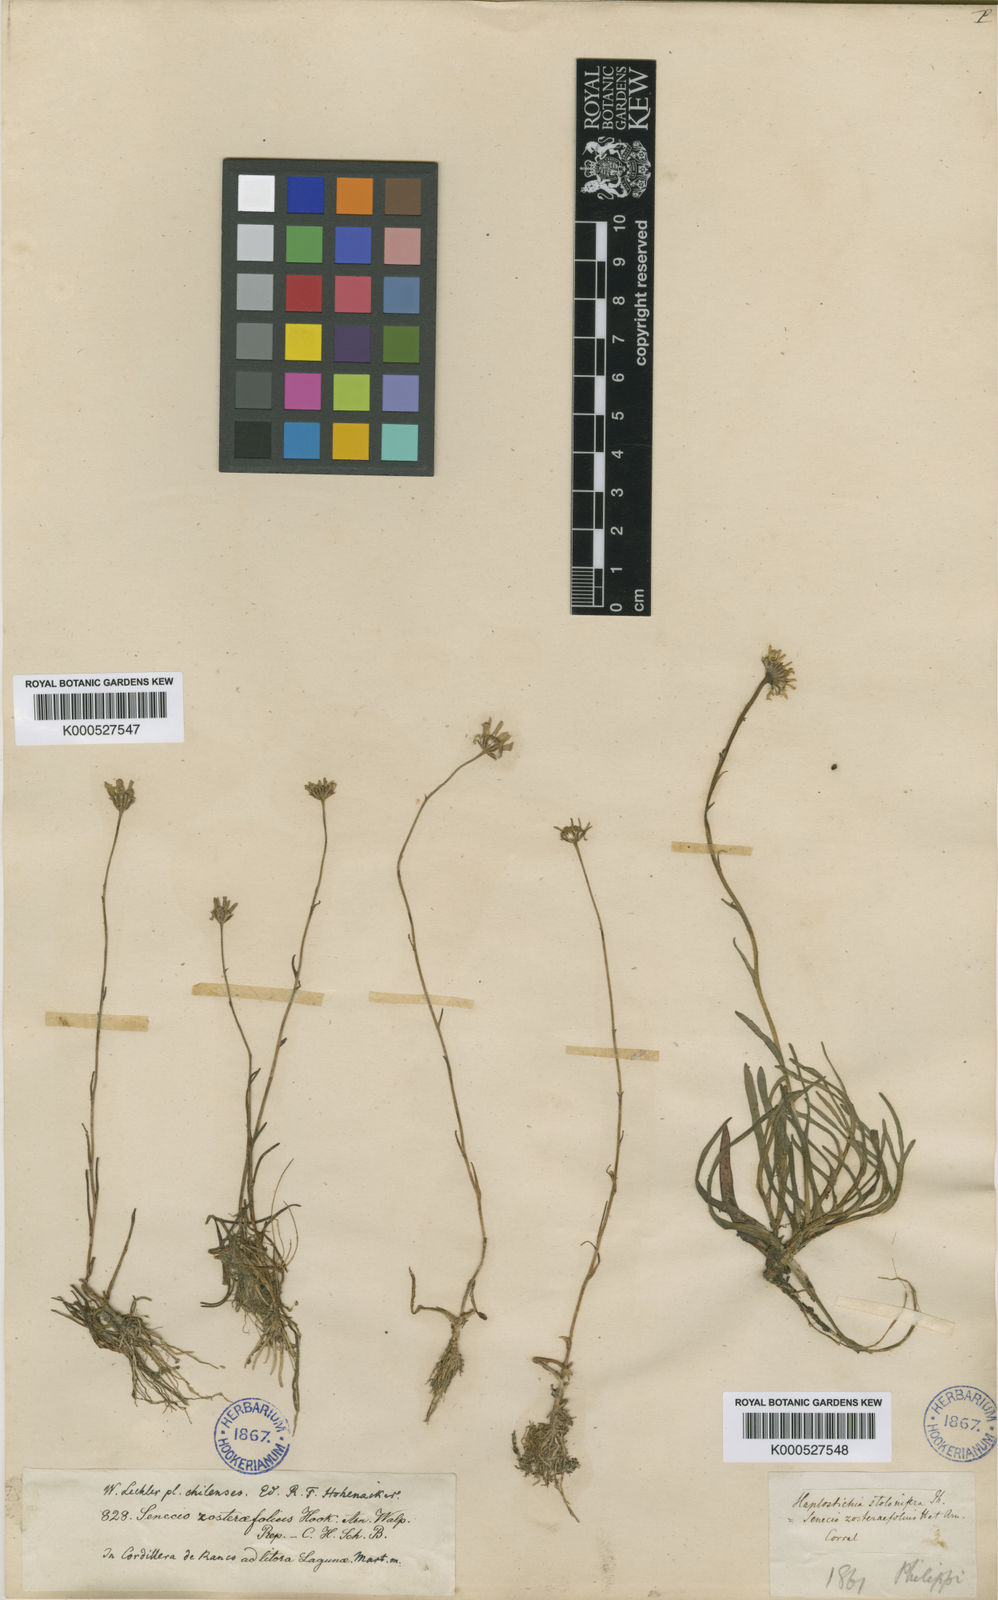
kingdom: Plantae
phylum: Tracheophyta
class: Magnoliopsida
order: Asterales
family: Asteraceae
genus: Haplosticha
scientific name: Haplosticha zosterifolia
